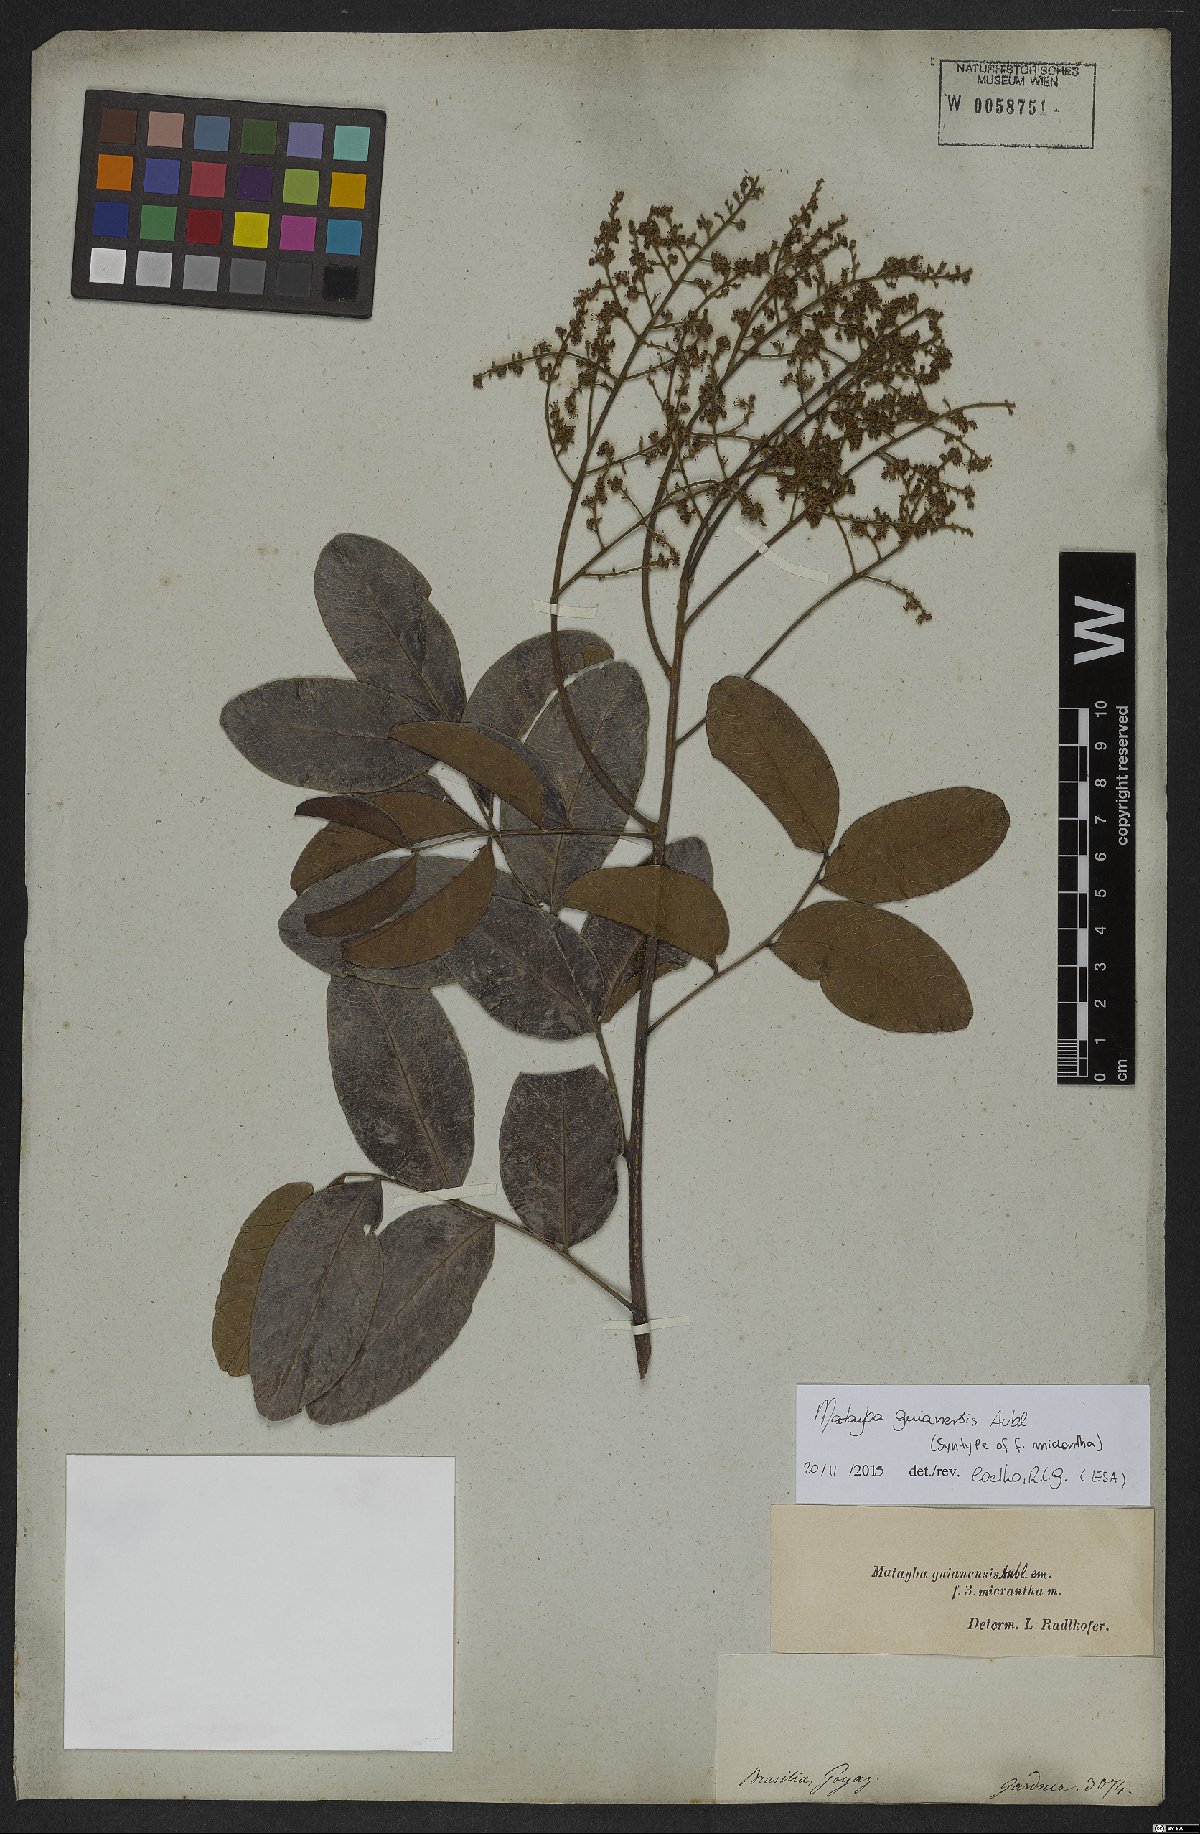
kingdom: Plantae
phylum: Tracheophyta
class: Magnoliopsida
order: Sapindales
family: Sapindaceae
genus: Matayba
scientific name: Matayba guianensis
